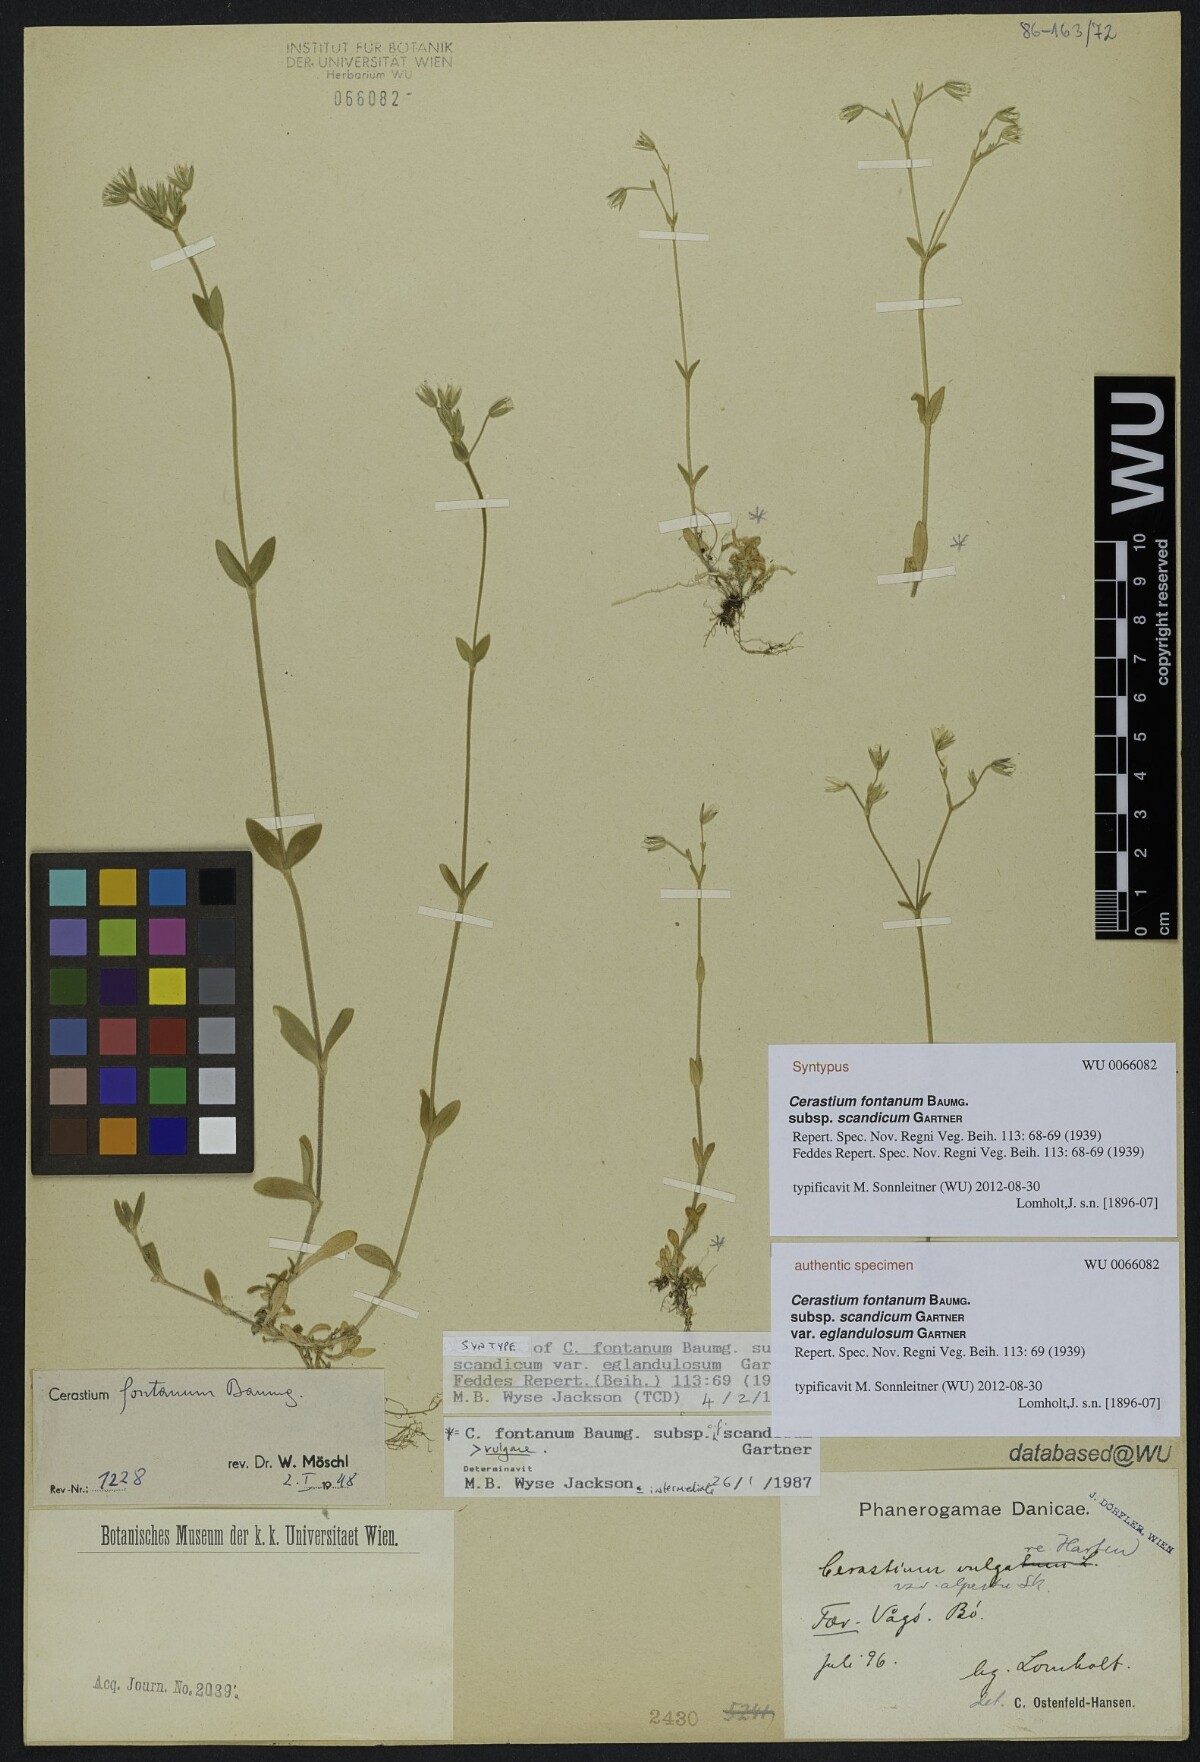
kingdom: Plantae
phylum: Tracheophyta
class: Magnoliopsida
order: Caryophyllales
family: Caryophyllaceae
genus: Cerastium
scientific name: Cerastium holosteoides
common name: Big chickweed
